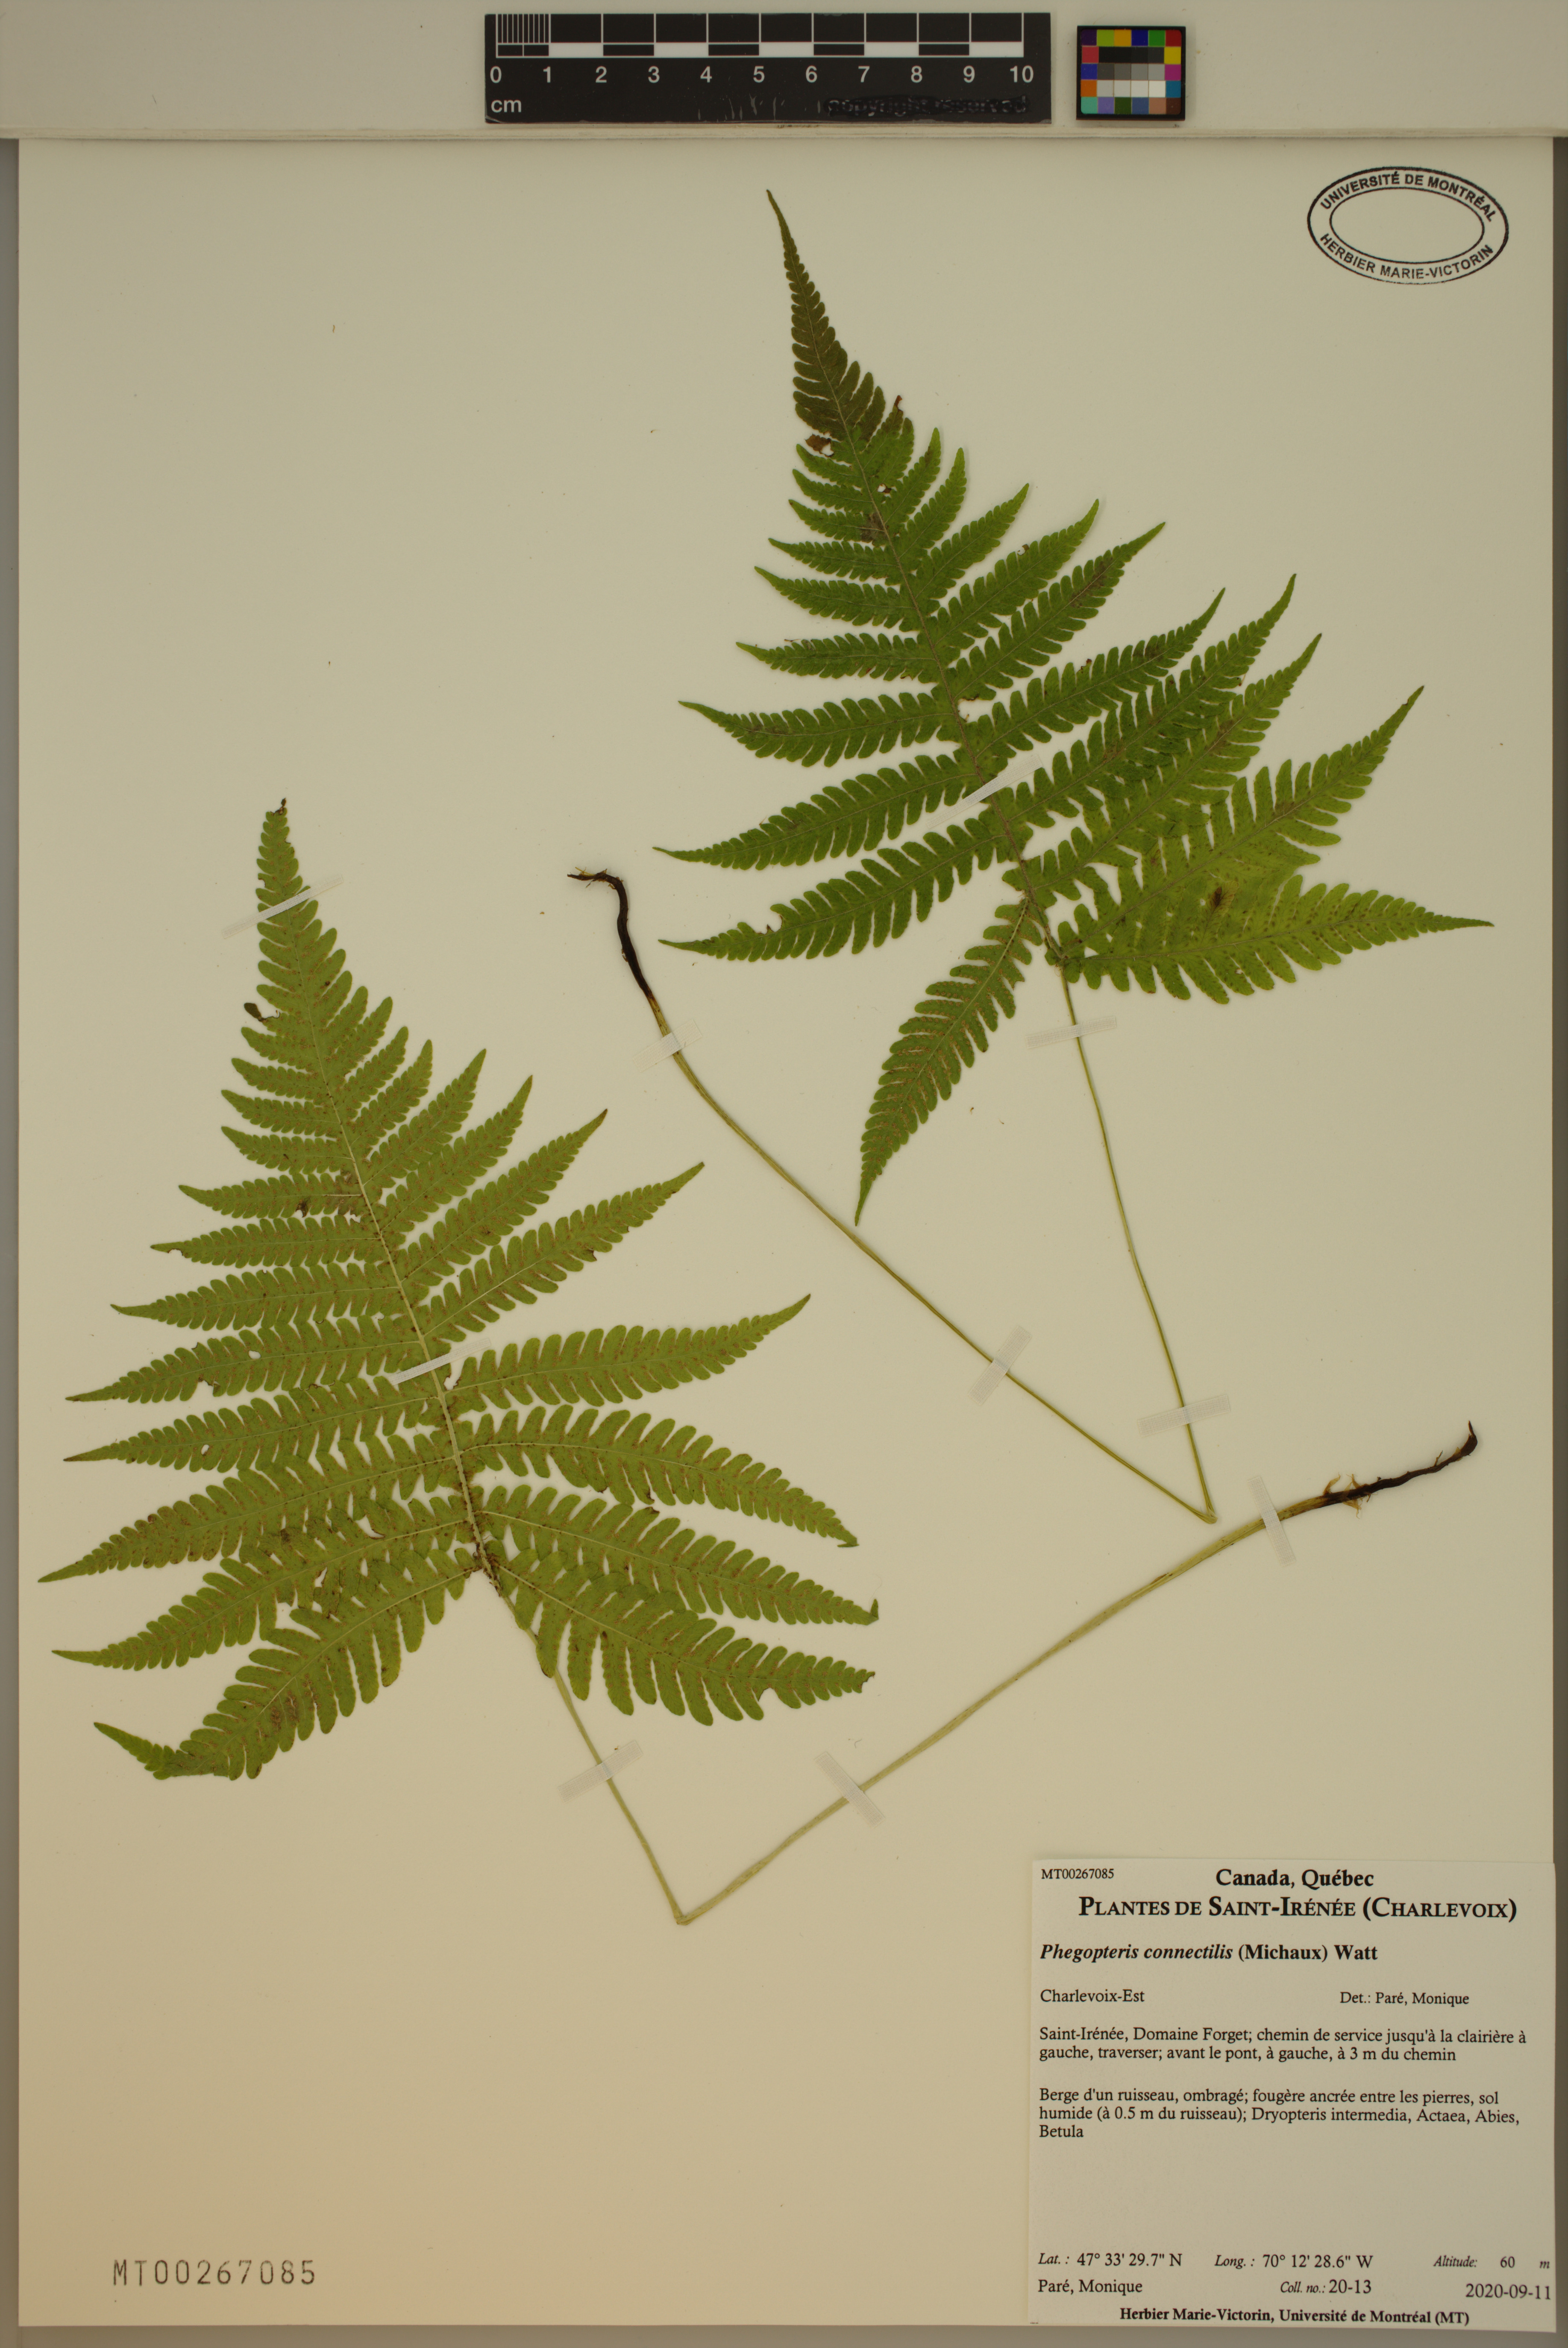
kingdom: Plantae
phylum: Tracheophyta
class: Polypodiopsida
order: Polypodiales
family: Thelypteridaceae
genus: Phegopteris
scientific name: Phegopteris connectilis
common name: Beech fern
